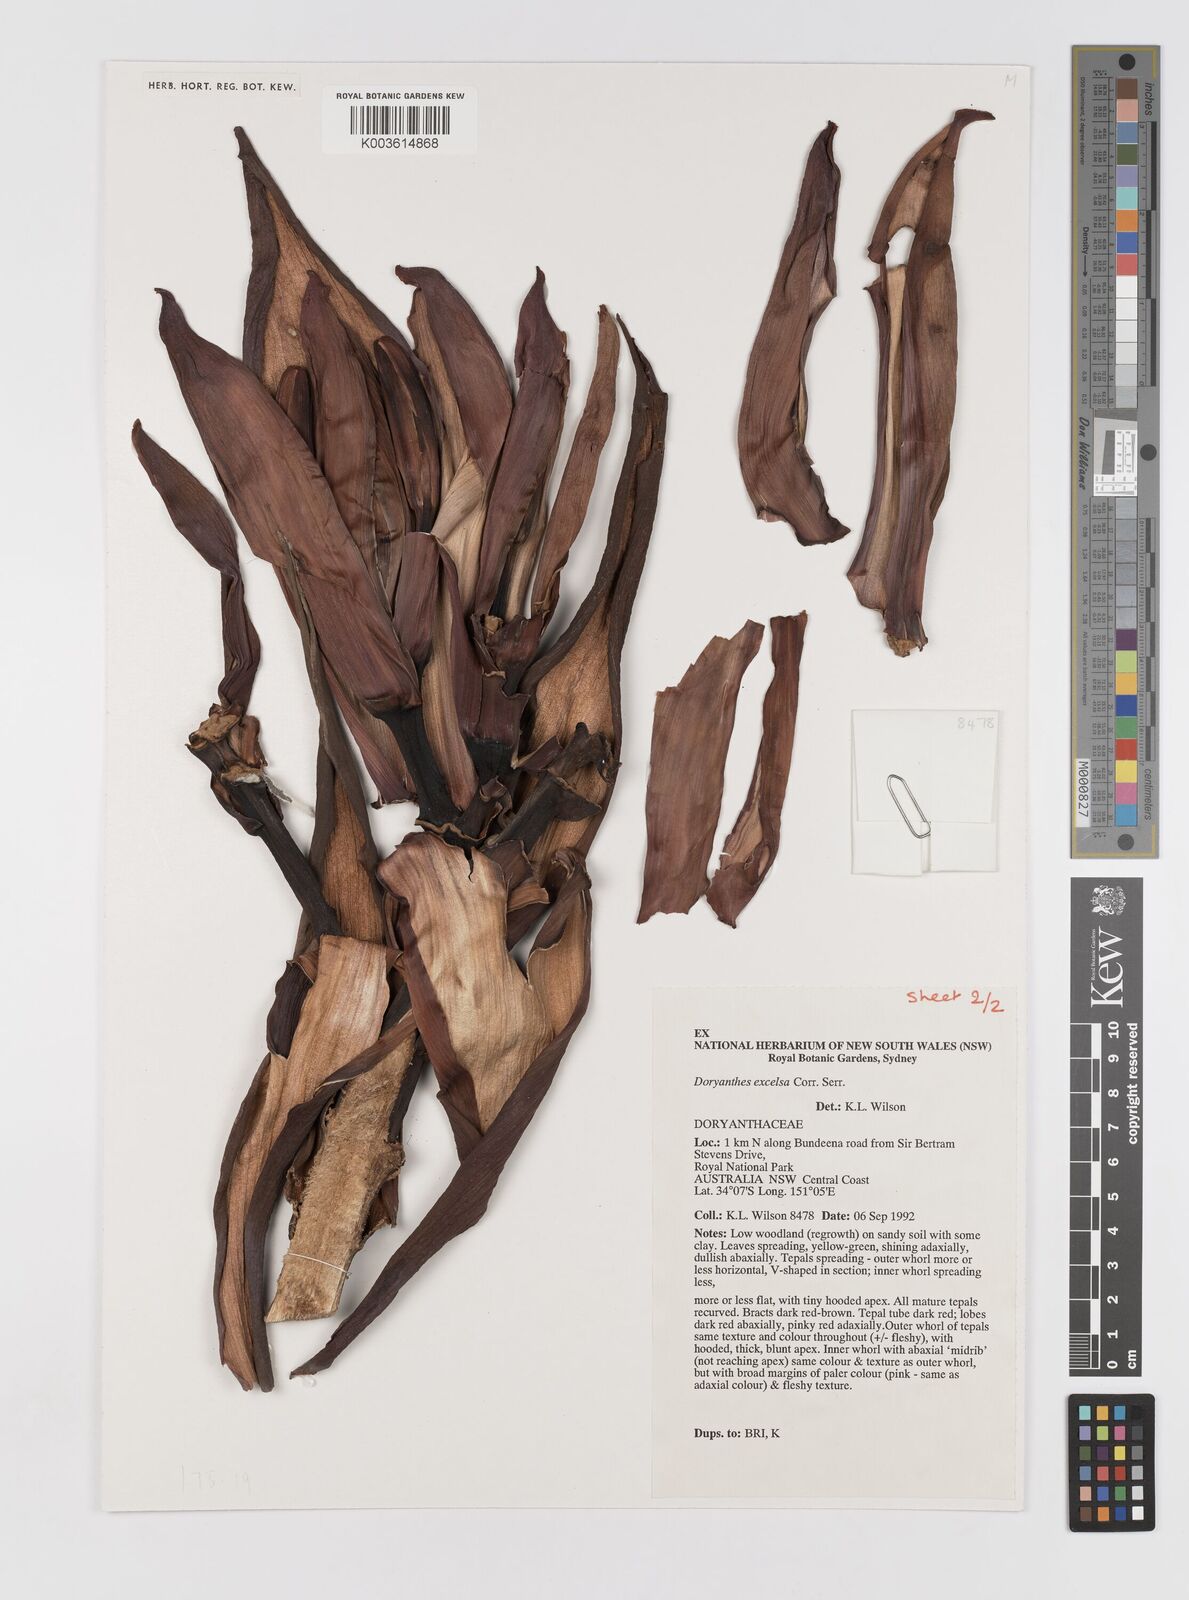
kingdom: Plantae
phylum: Tracheophyta
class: Liliopsida
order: Asparagales
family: Doryanthaceae
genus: Doryanthes
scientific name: Doryanthes excelsa
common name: Giant-lily
